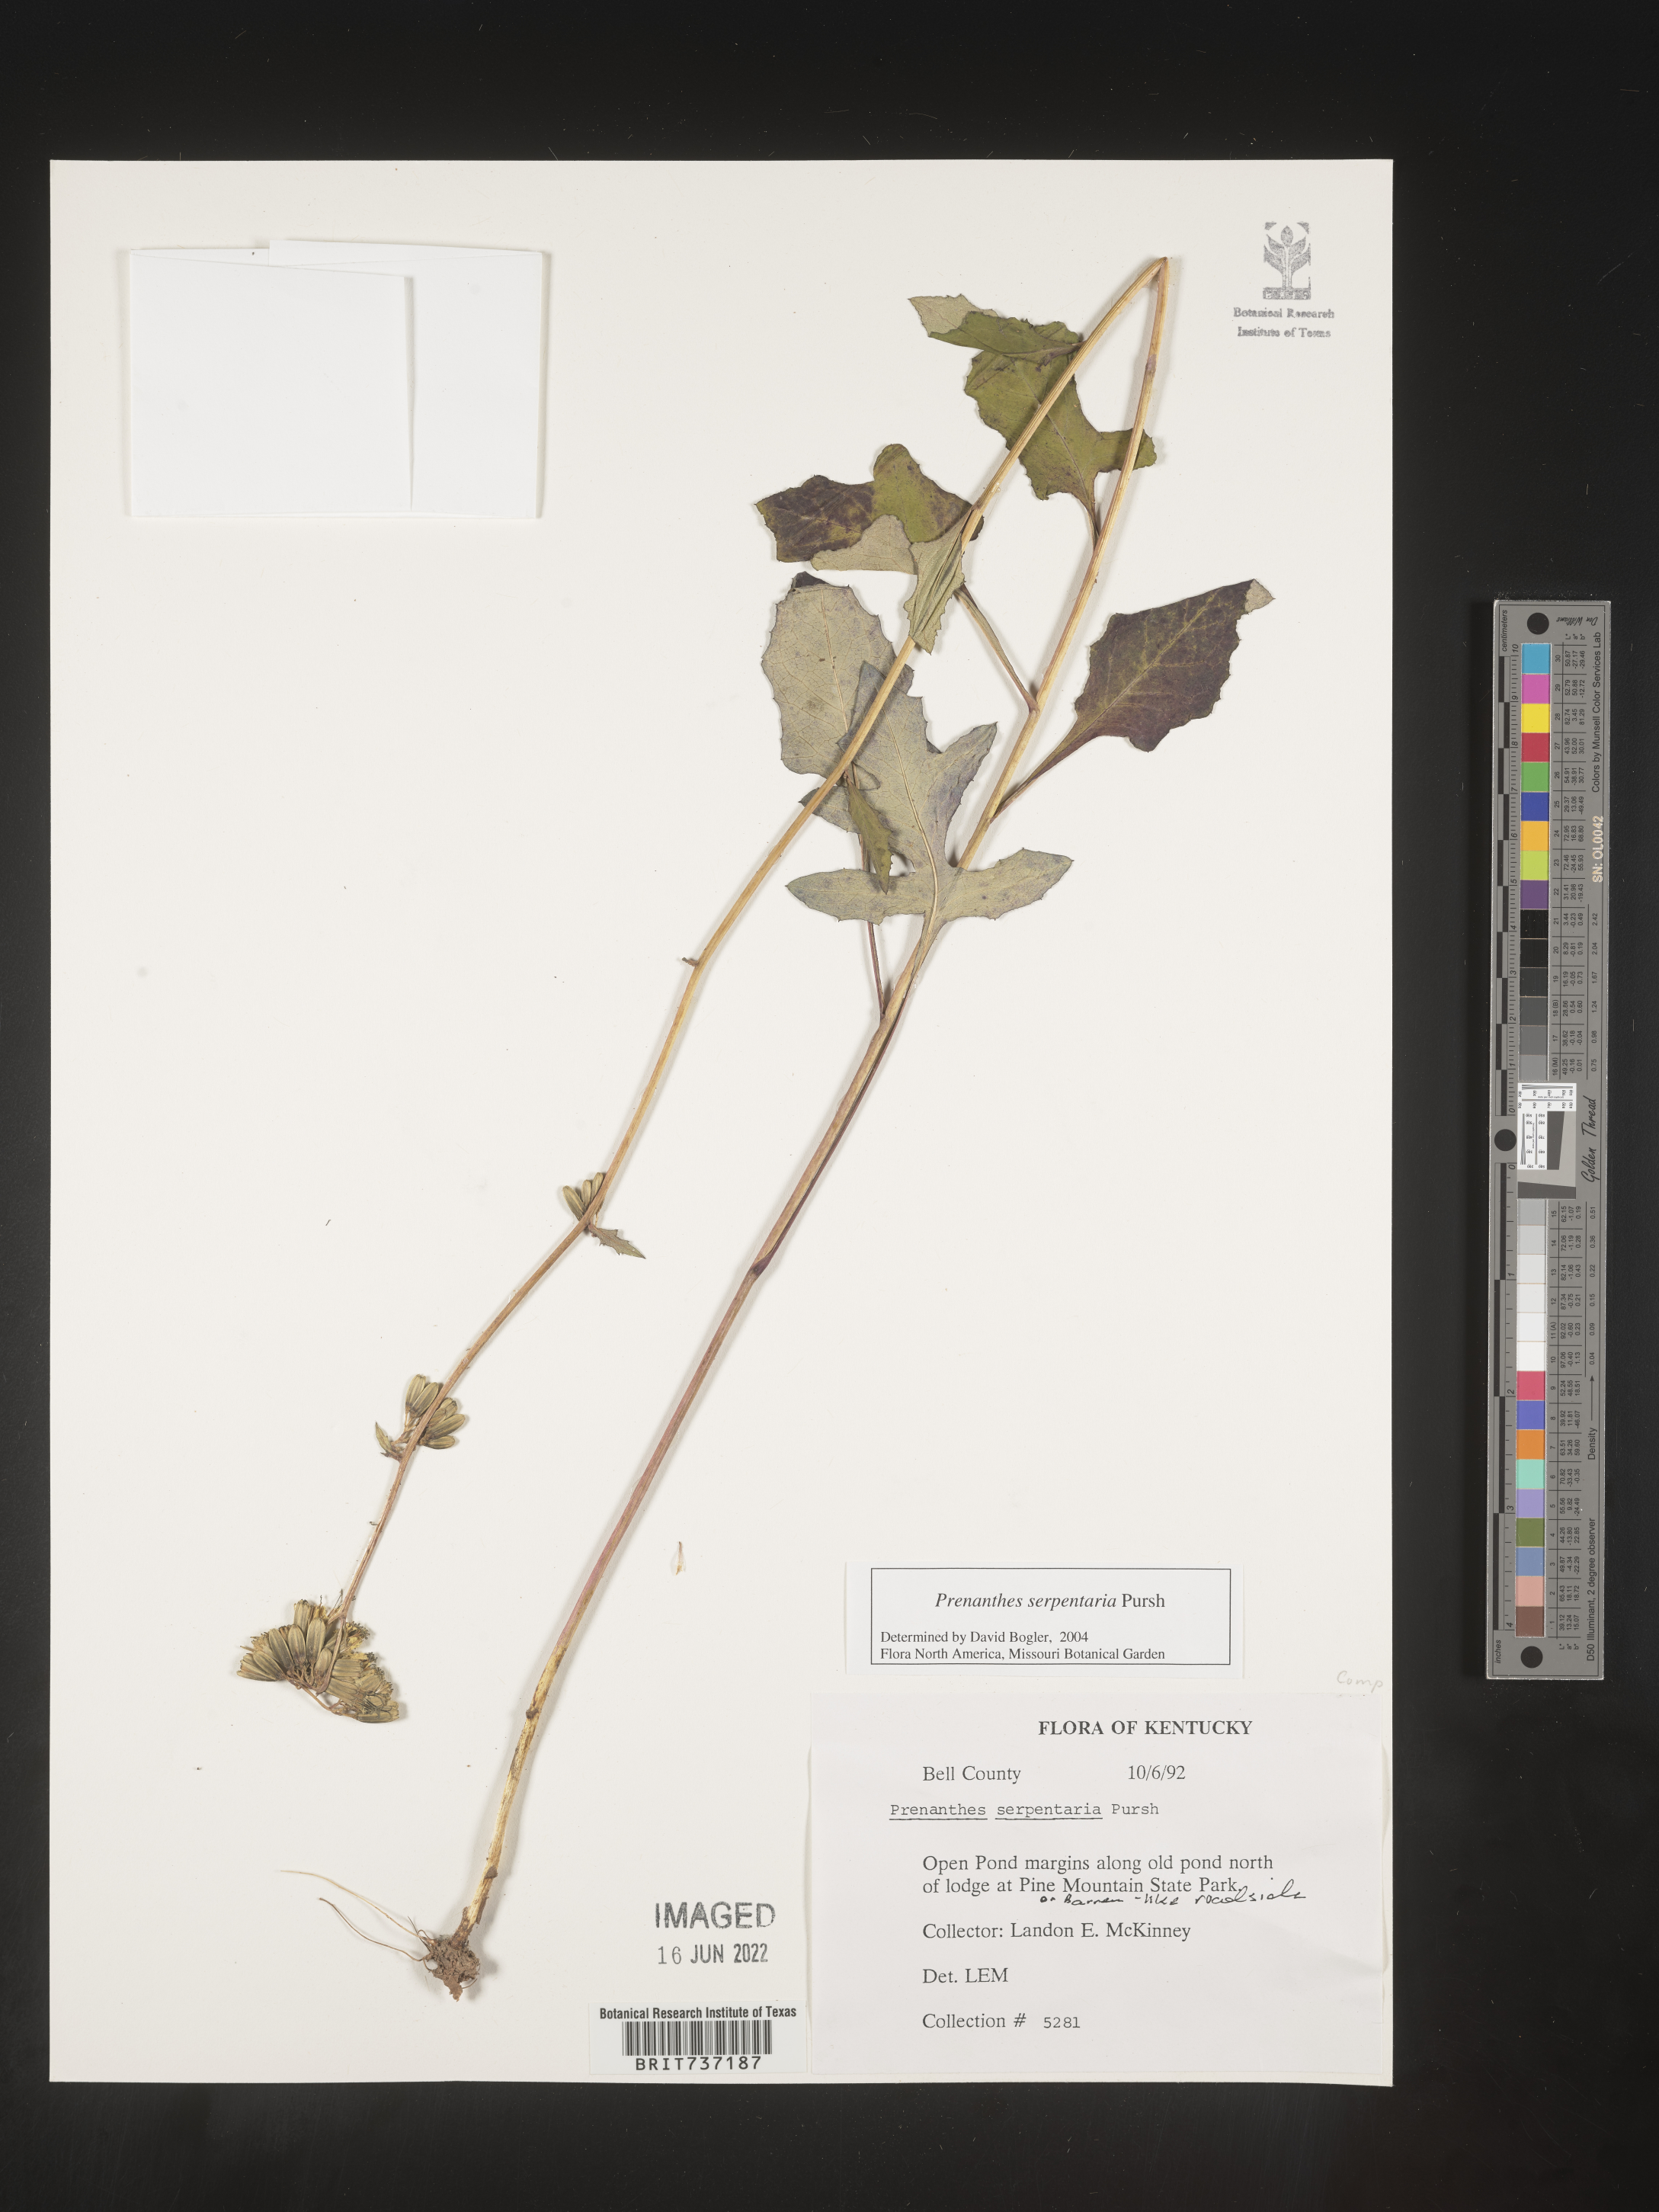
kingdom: Plantae
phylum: Tracheophyta
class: Magnoliopsida
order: Asterales
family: Asteraceae
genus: Nabalus
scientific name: Nabalus serpentarius
